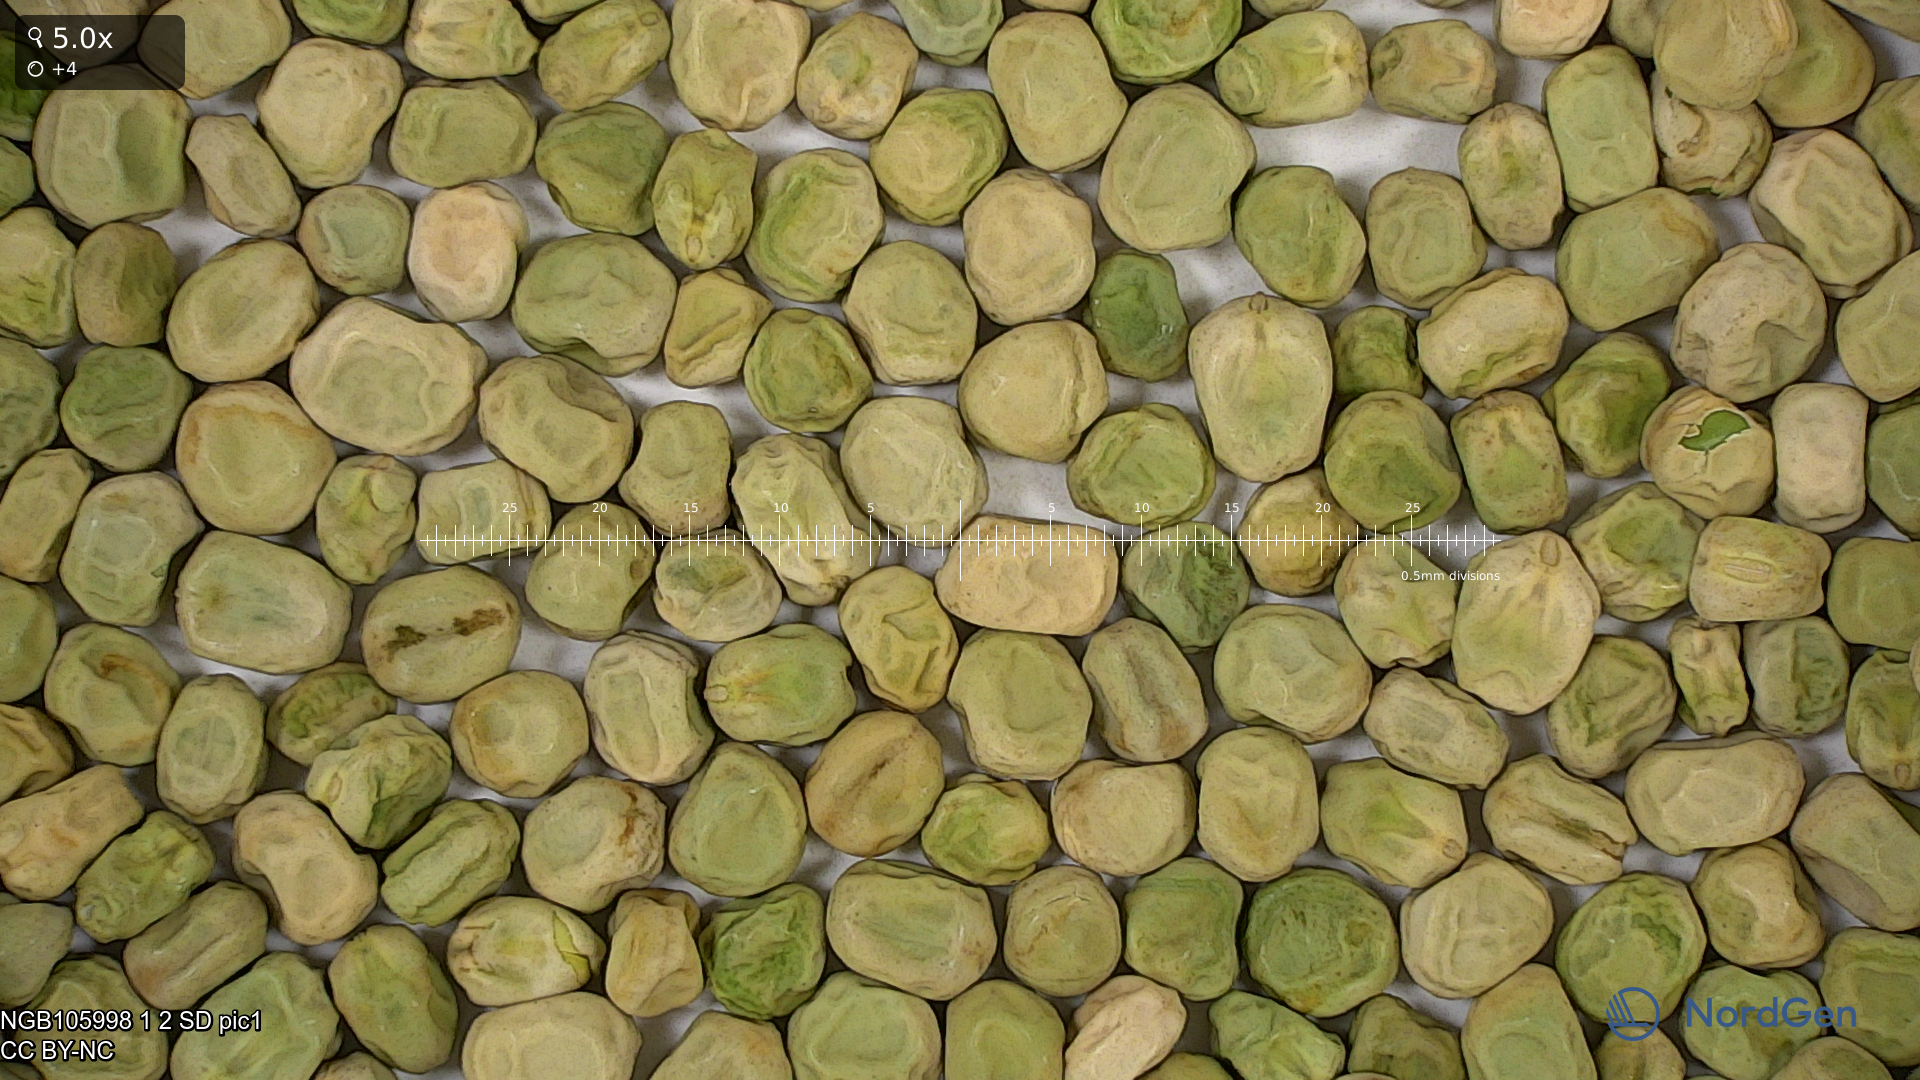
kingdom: Plantae
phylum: Tracheophyta
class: Magnoliopsida
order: Fabales
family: Fabaceae
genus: Lathyrus
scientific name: Lathyrus oleraceus
